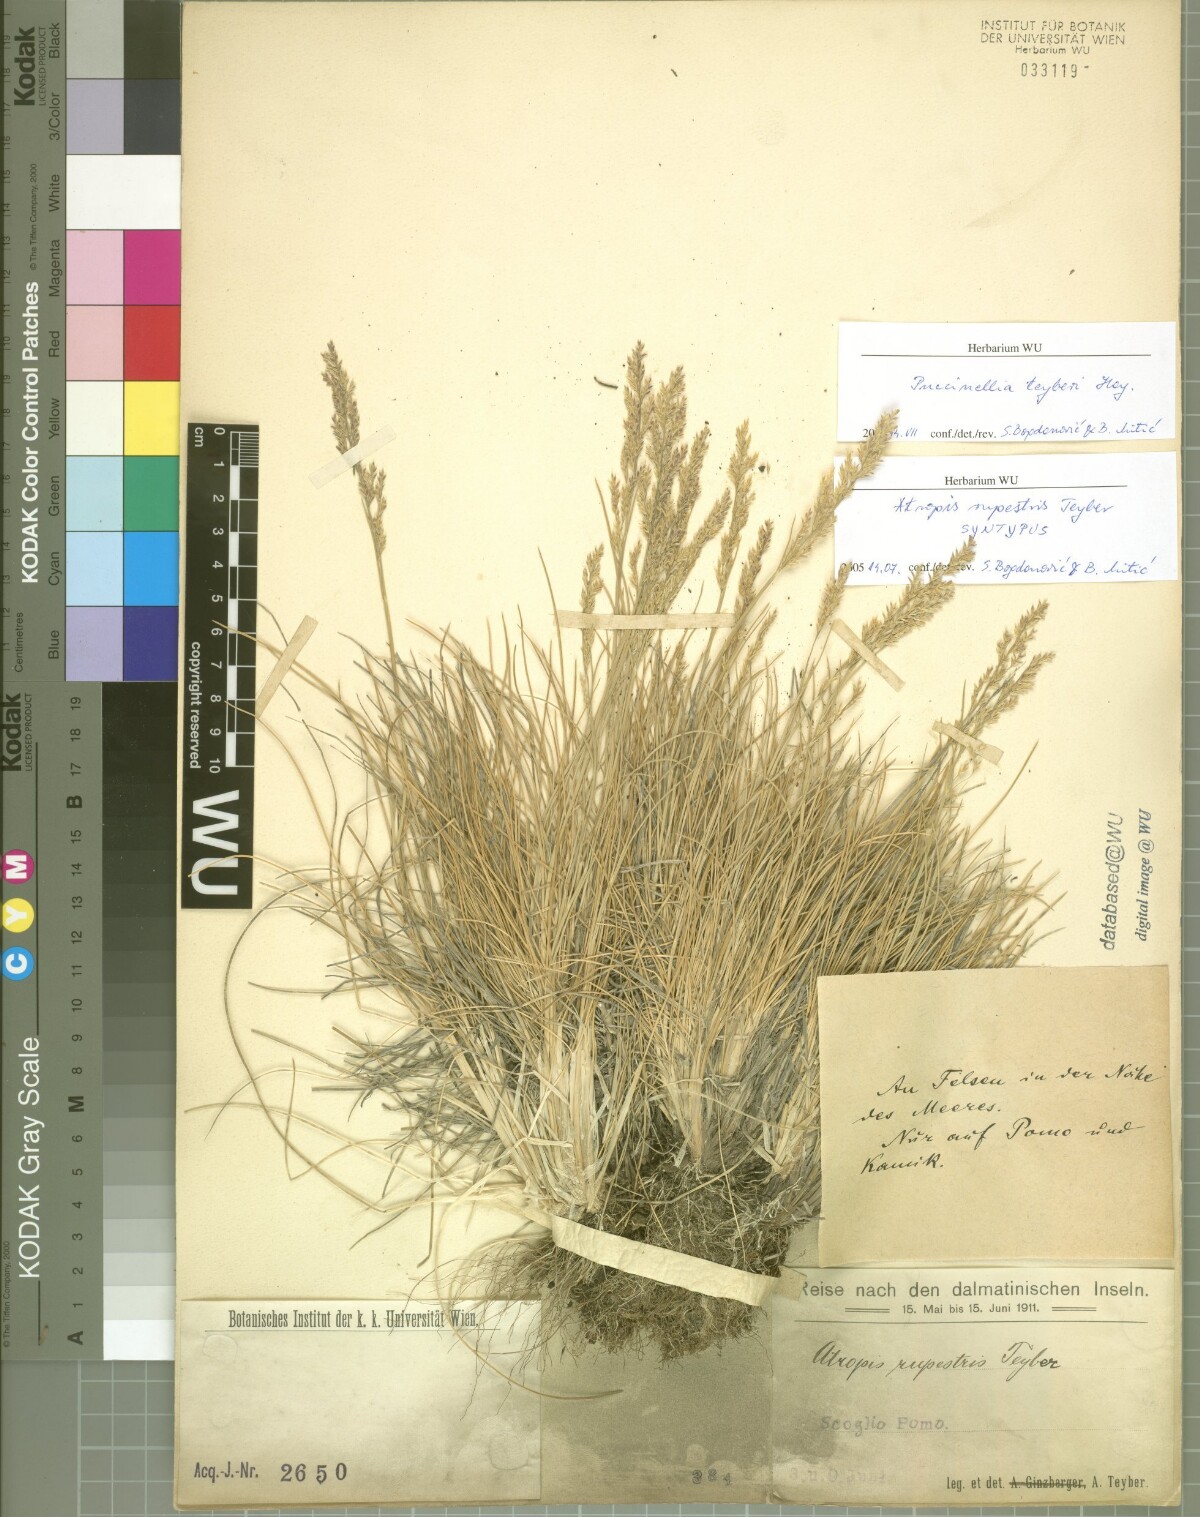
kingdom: Plantae
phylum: Tracheophyta
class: Liliopsida
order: Poales
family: Poaceae
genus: Puccinellia
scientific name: Puccinellia festuciformis
